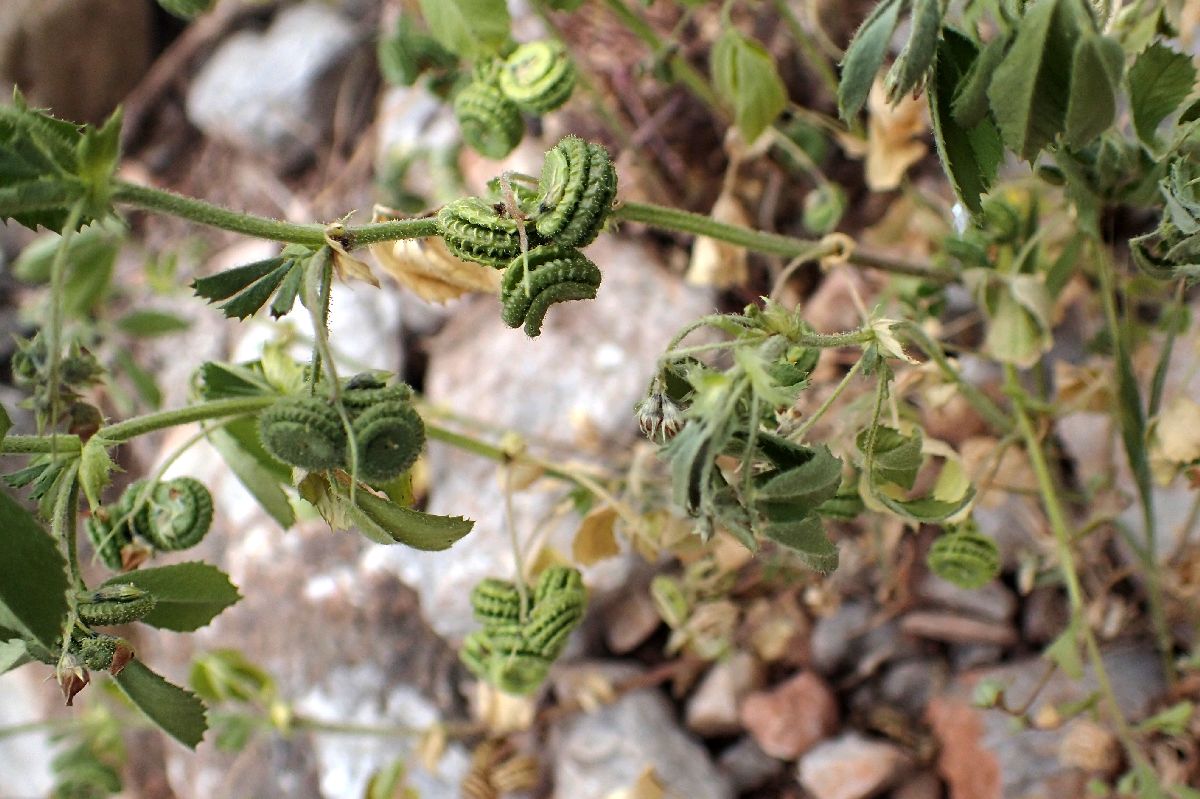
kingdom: Plantae
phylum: Tracheophyta
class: Magnoliopsida
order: Fabales
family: Fabaceae
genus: Medicago
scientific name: Medicago rugosa
